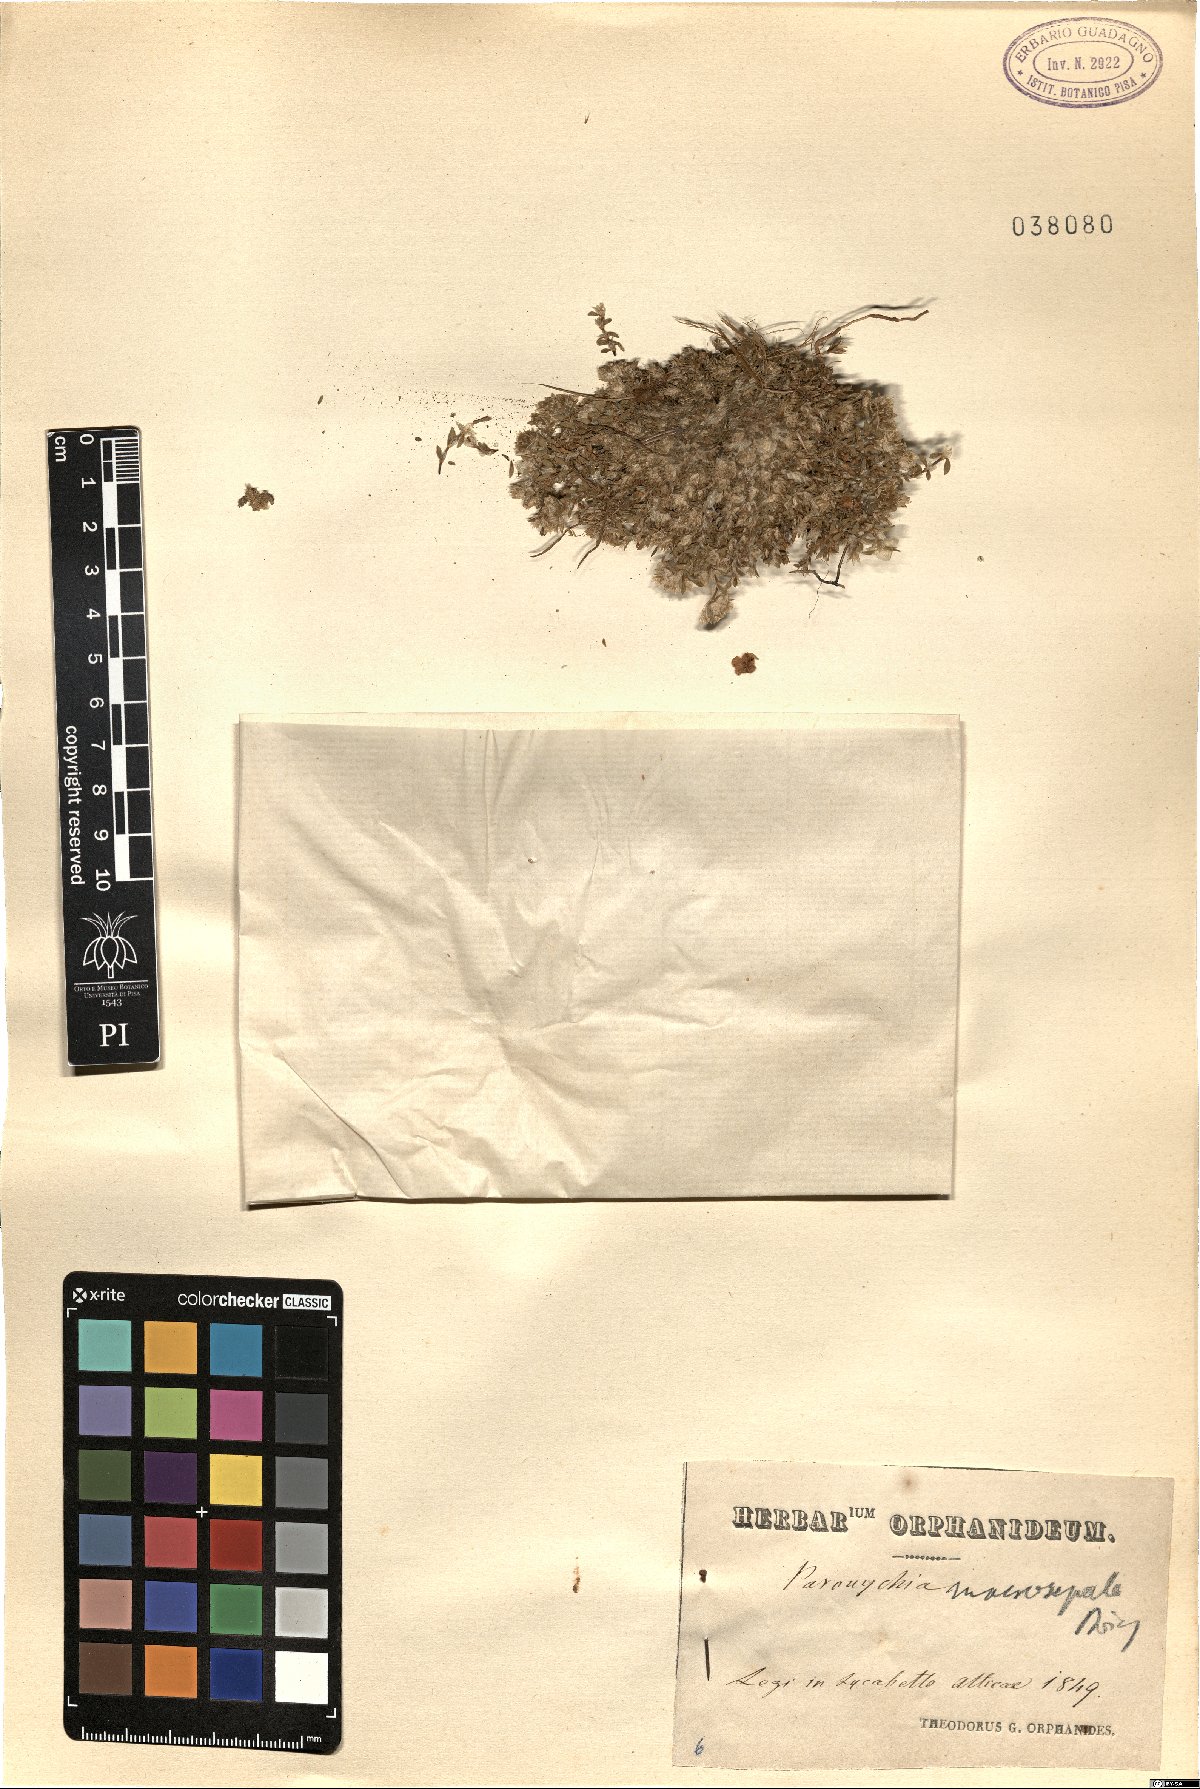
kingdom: Plantae
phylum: Tracheophyta
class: Magnoliopsida
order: Caryophyllales
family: Caryophyllaceae
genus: Paronychia
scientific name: Paronychia macrosepala
